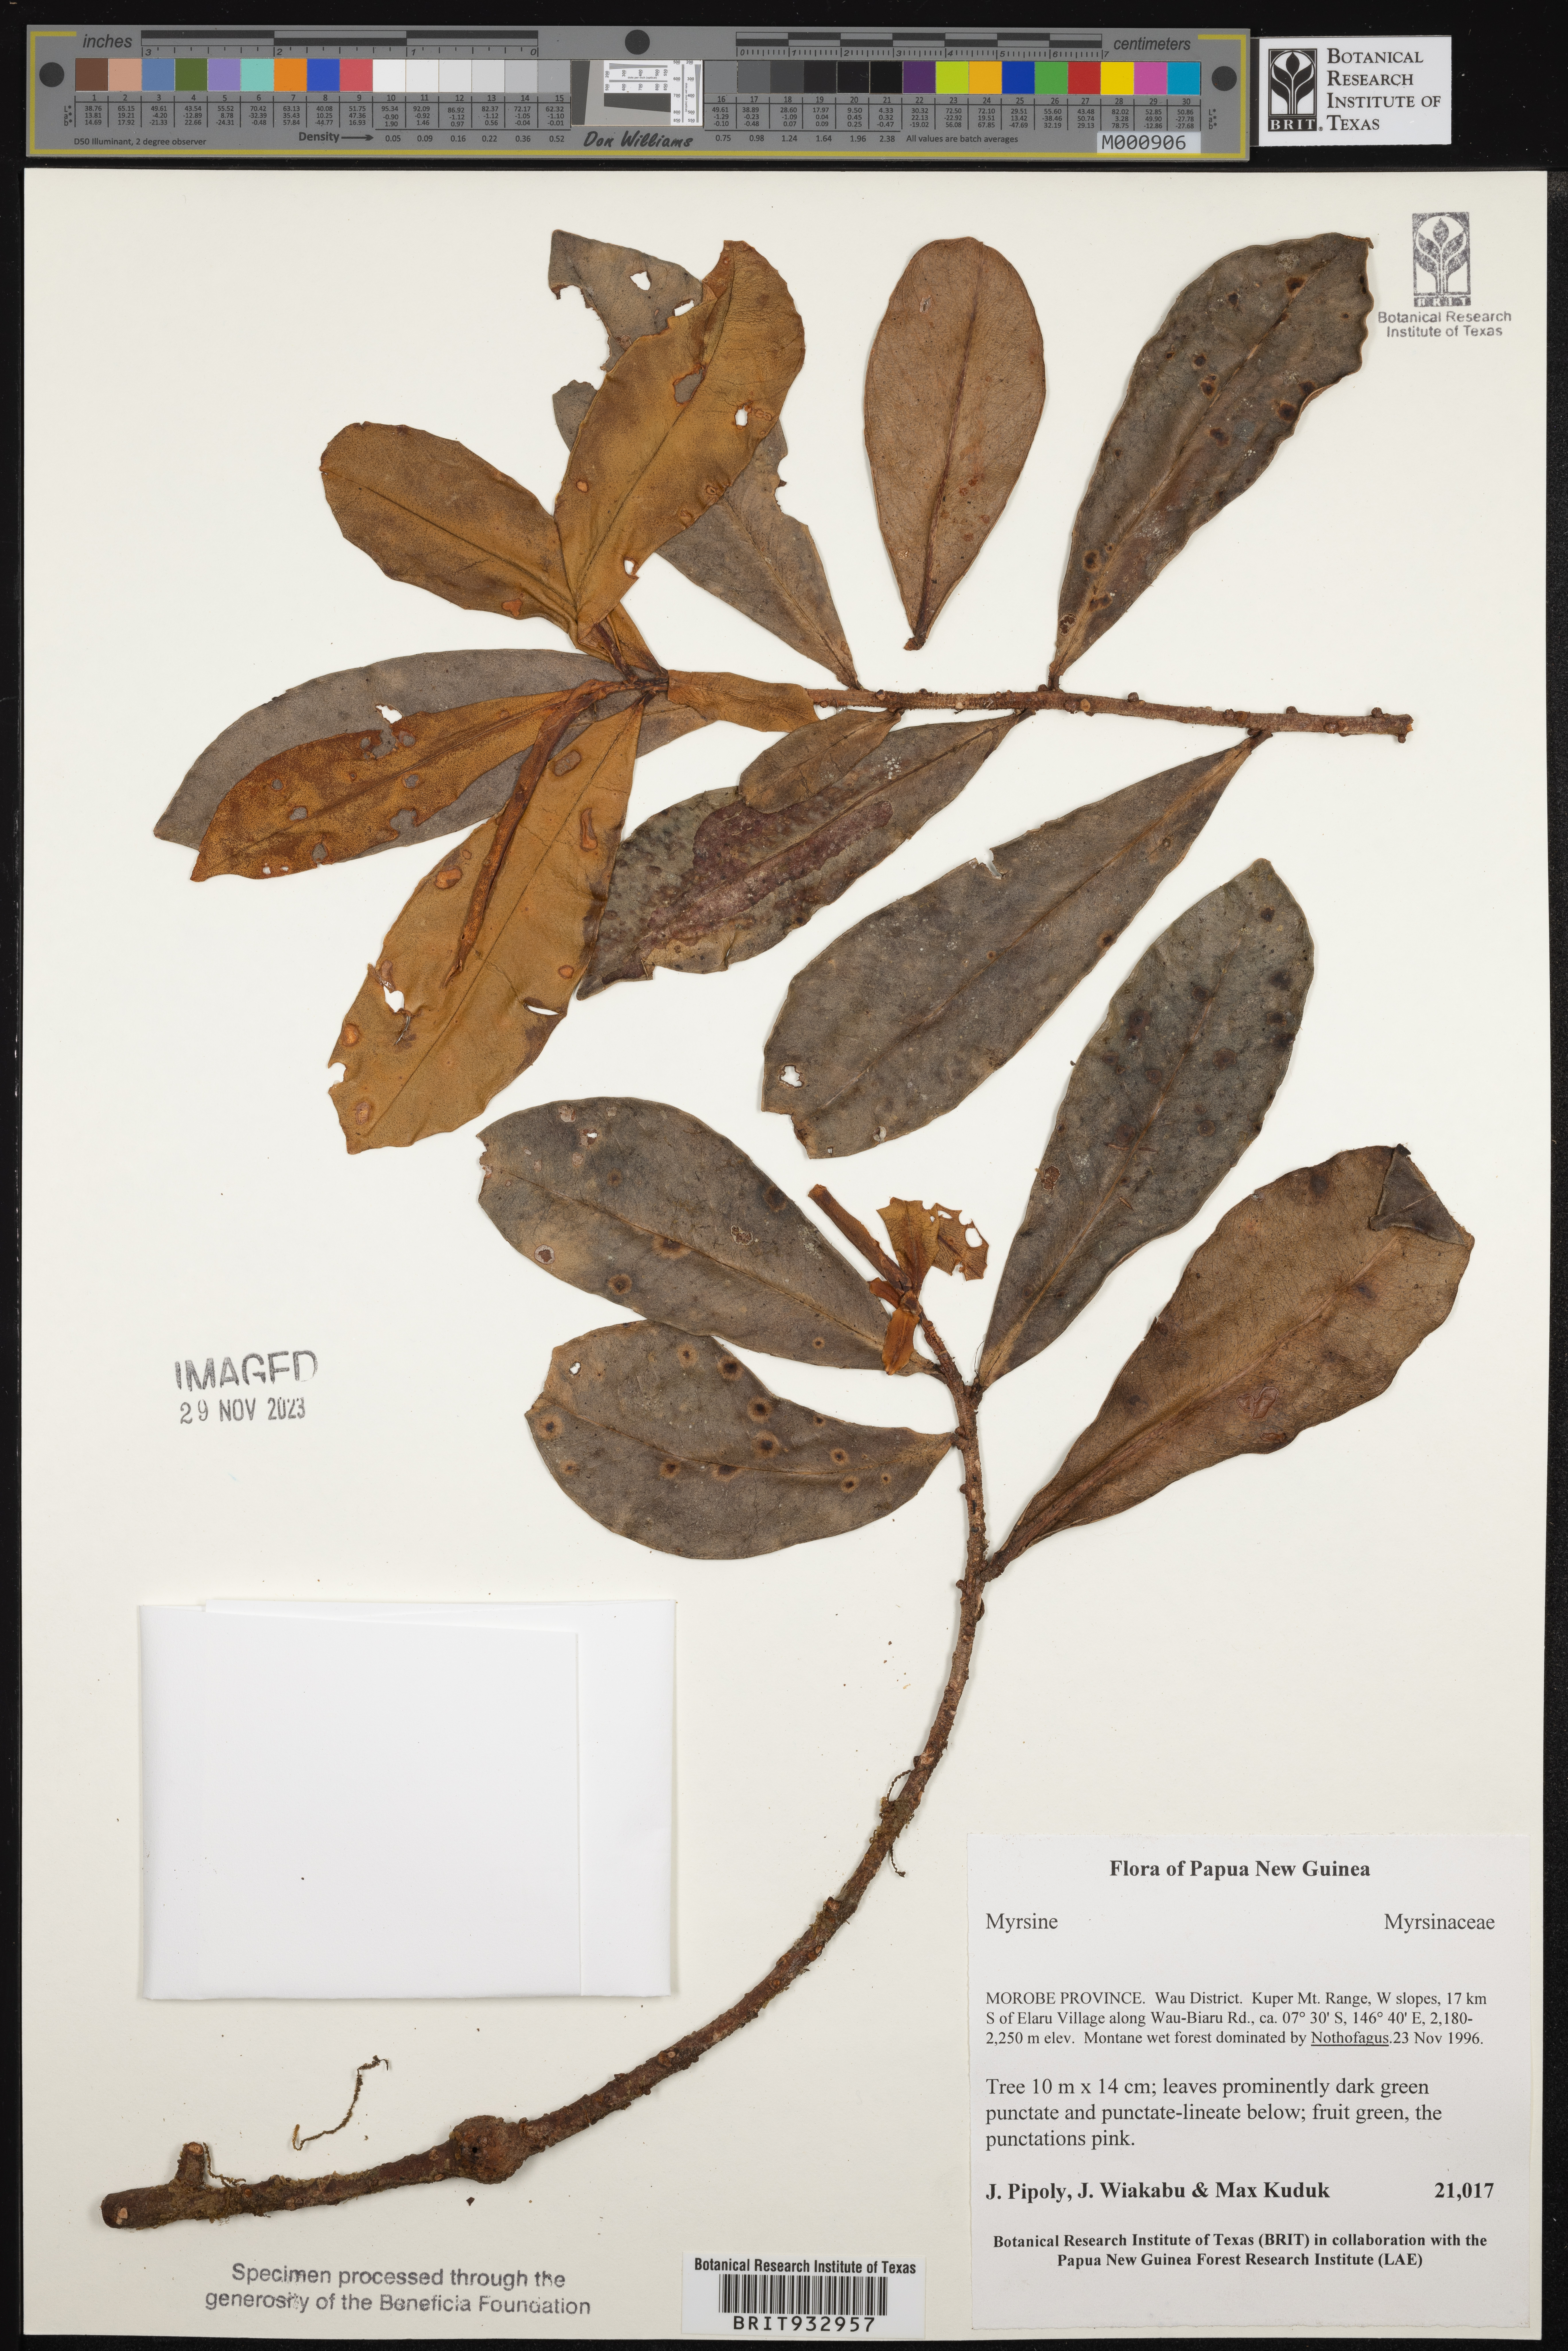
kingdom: Plantae
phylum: Tracheophyta
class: Magnoliopsida
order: Ericales
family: Primulaceae
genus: Myrsine
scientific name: Myrsine
